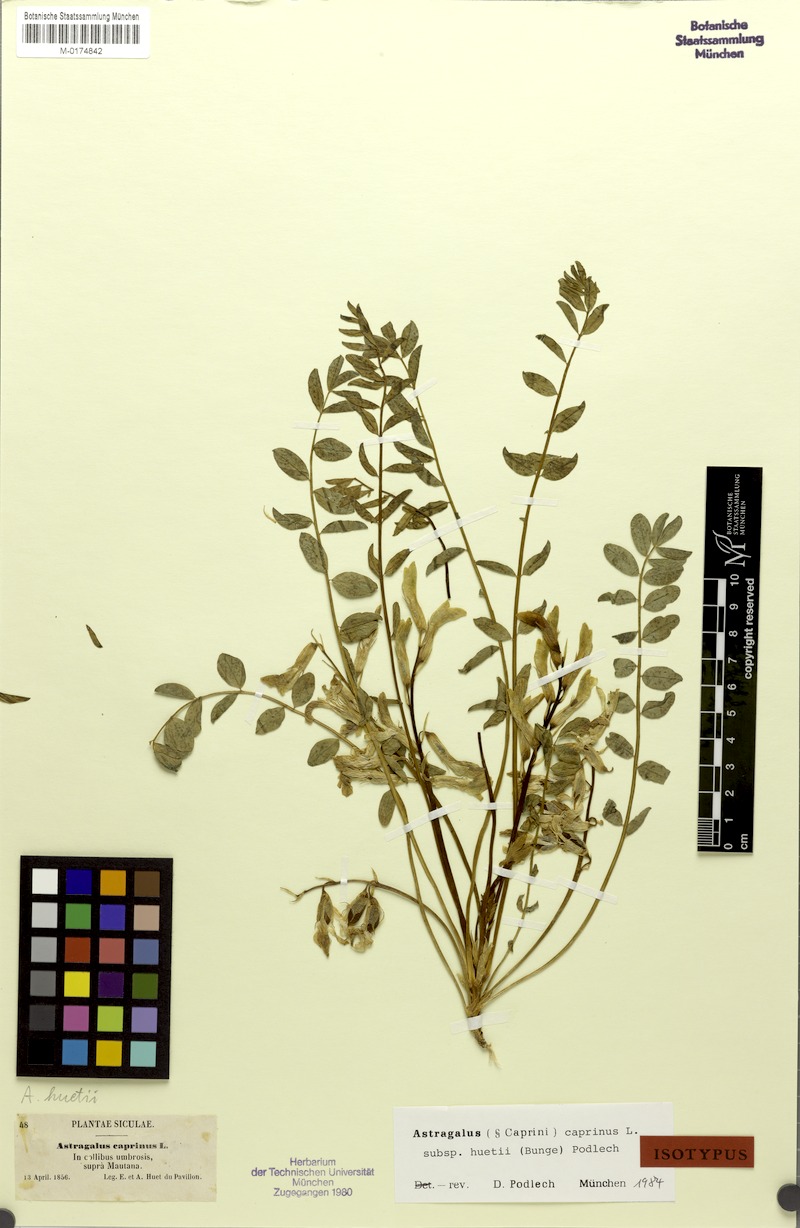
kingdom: Plantae
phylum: Tracheophyta
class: Magnoliopsida
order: Fabales
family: Fabaceae
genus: Astragalus
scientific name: Astragalus caprinus
